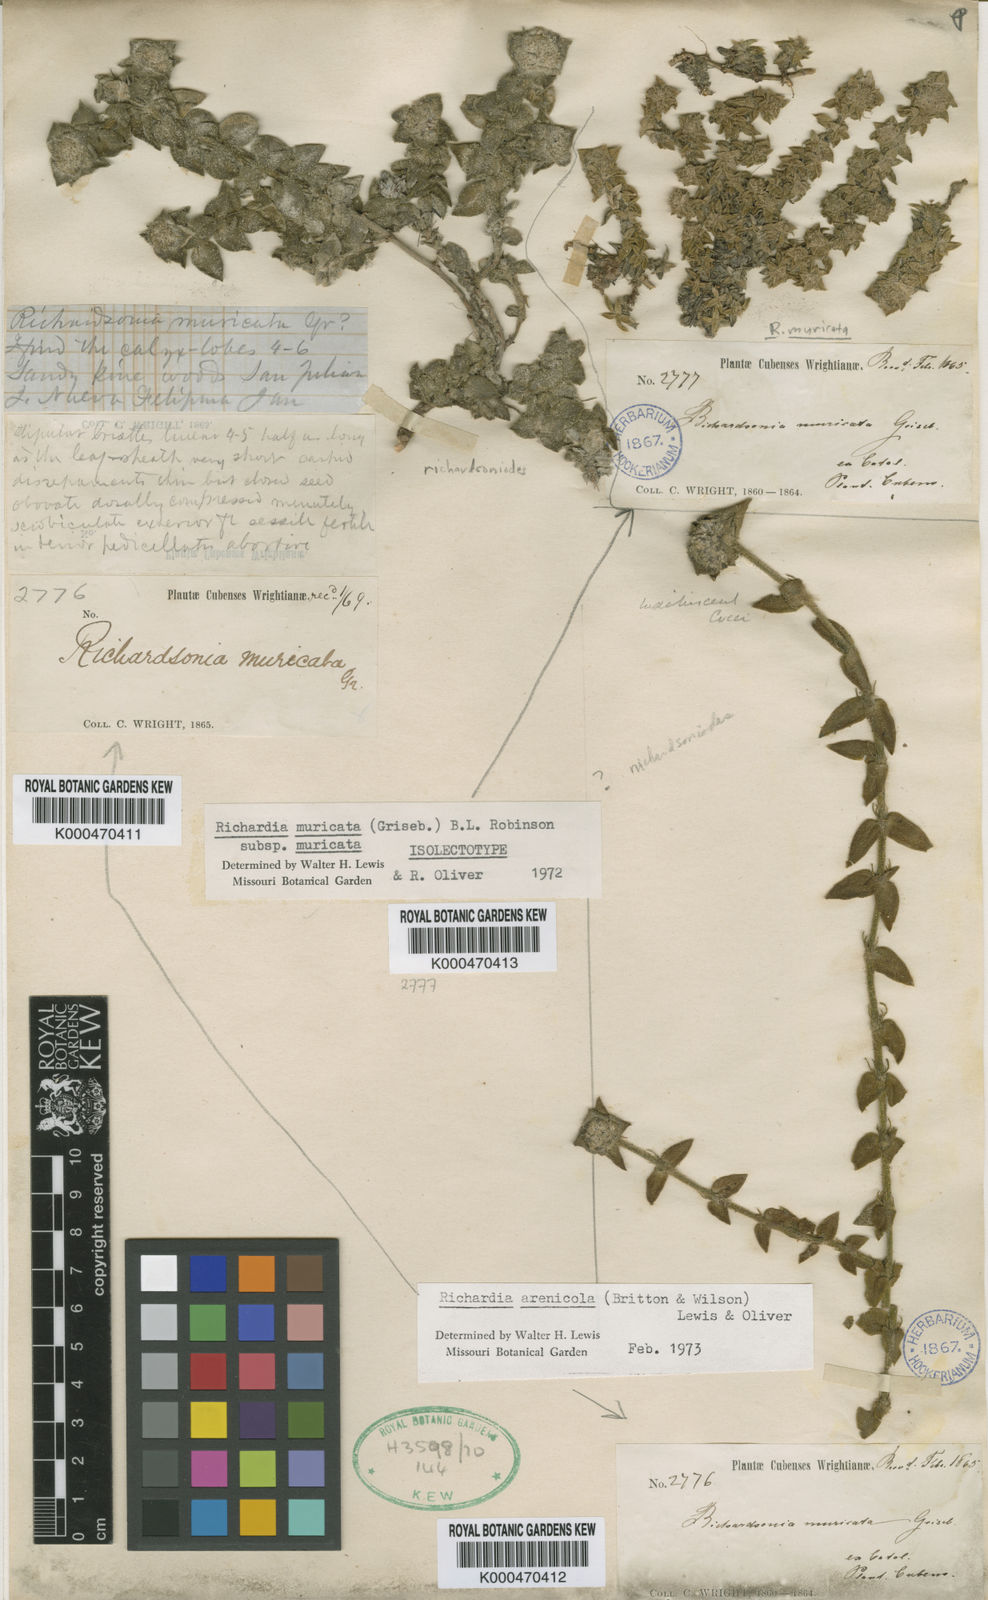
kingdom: Plantae
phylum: Tracheophyta
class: Magnoliopsida
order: Gentianales
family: Rubiaceae
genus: Richardia
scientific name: Richardia muricata
